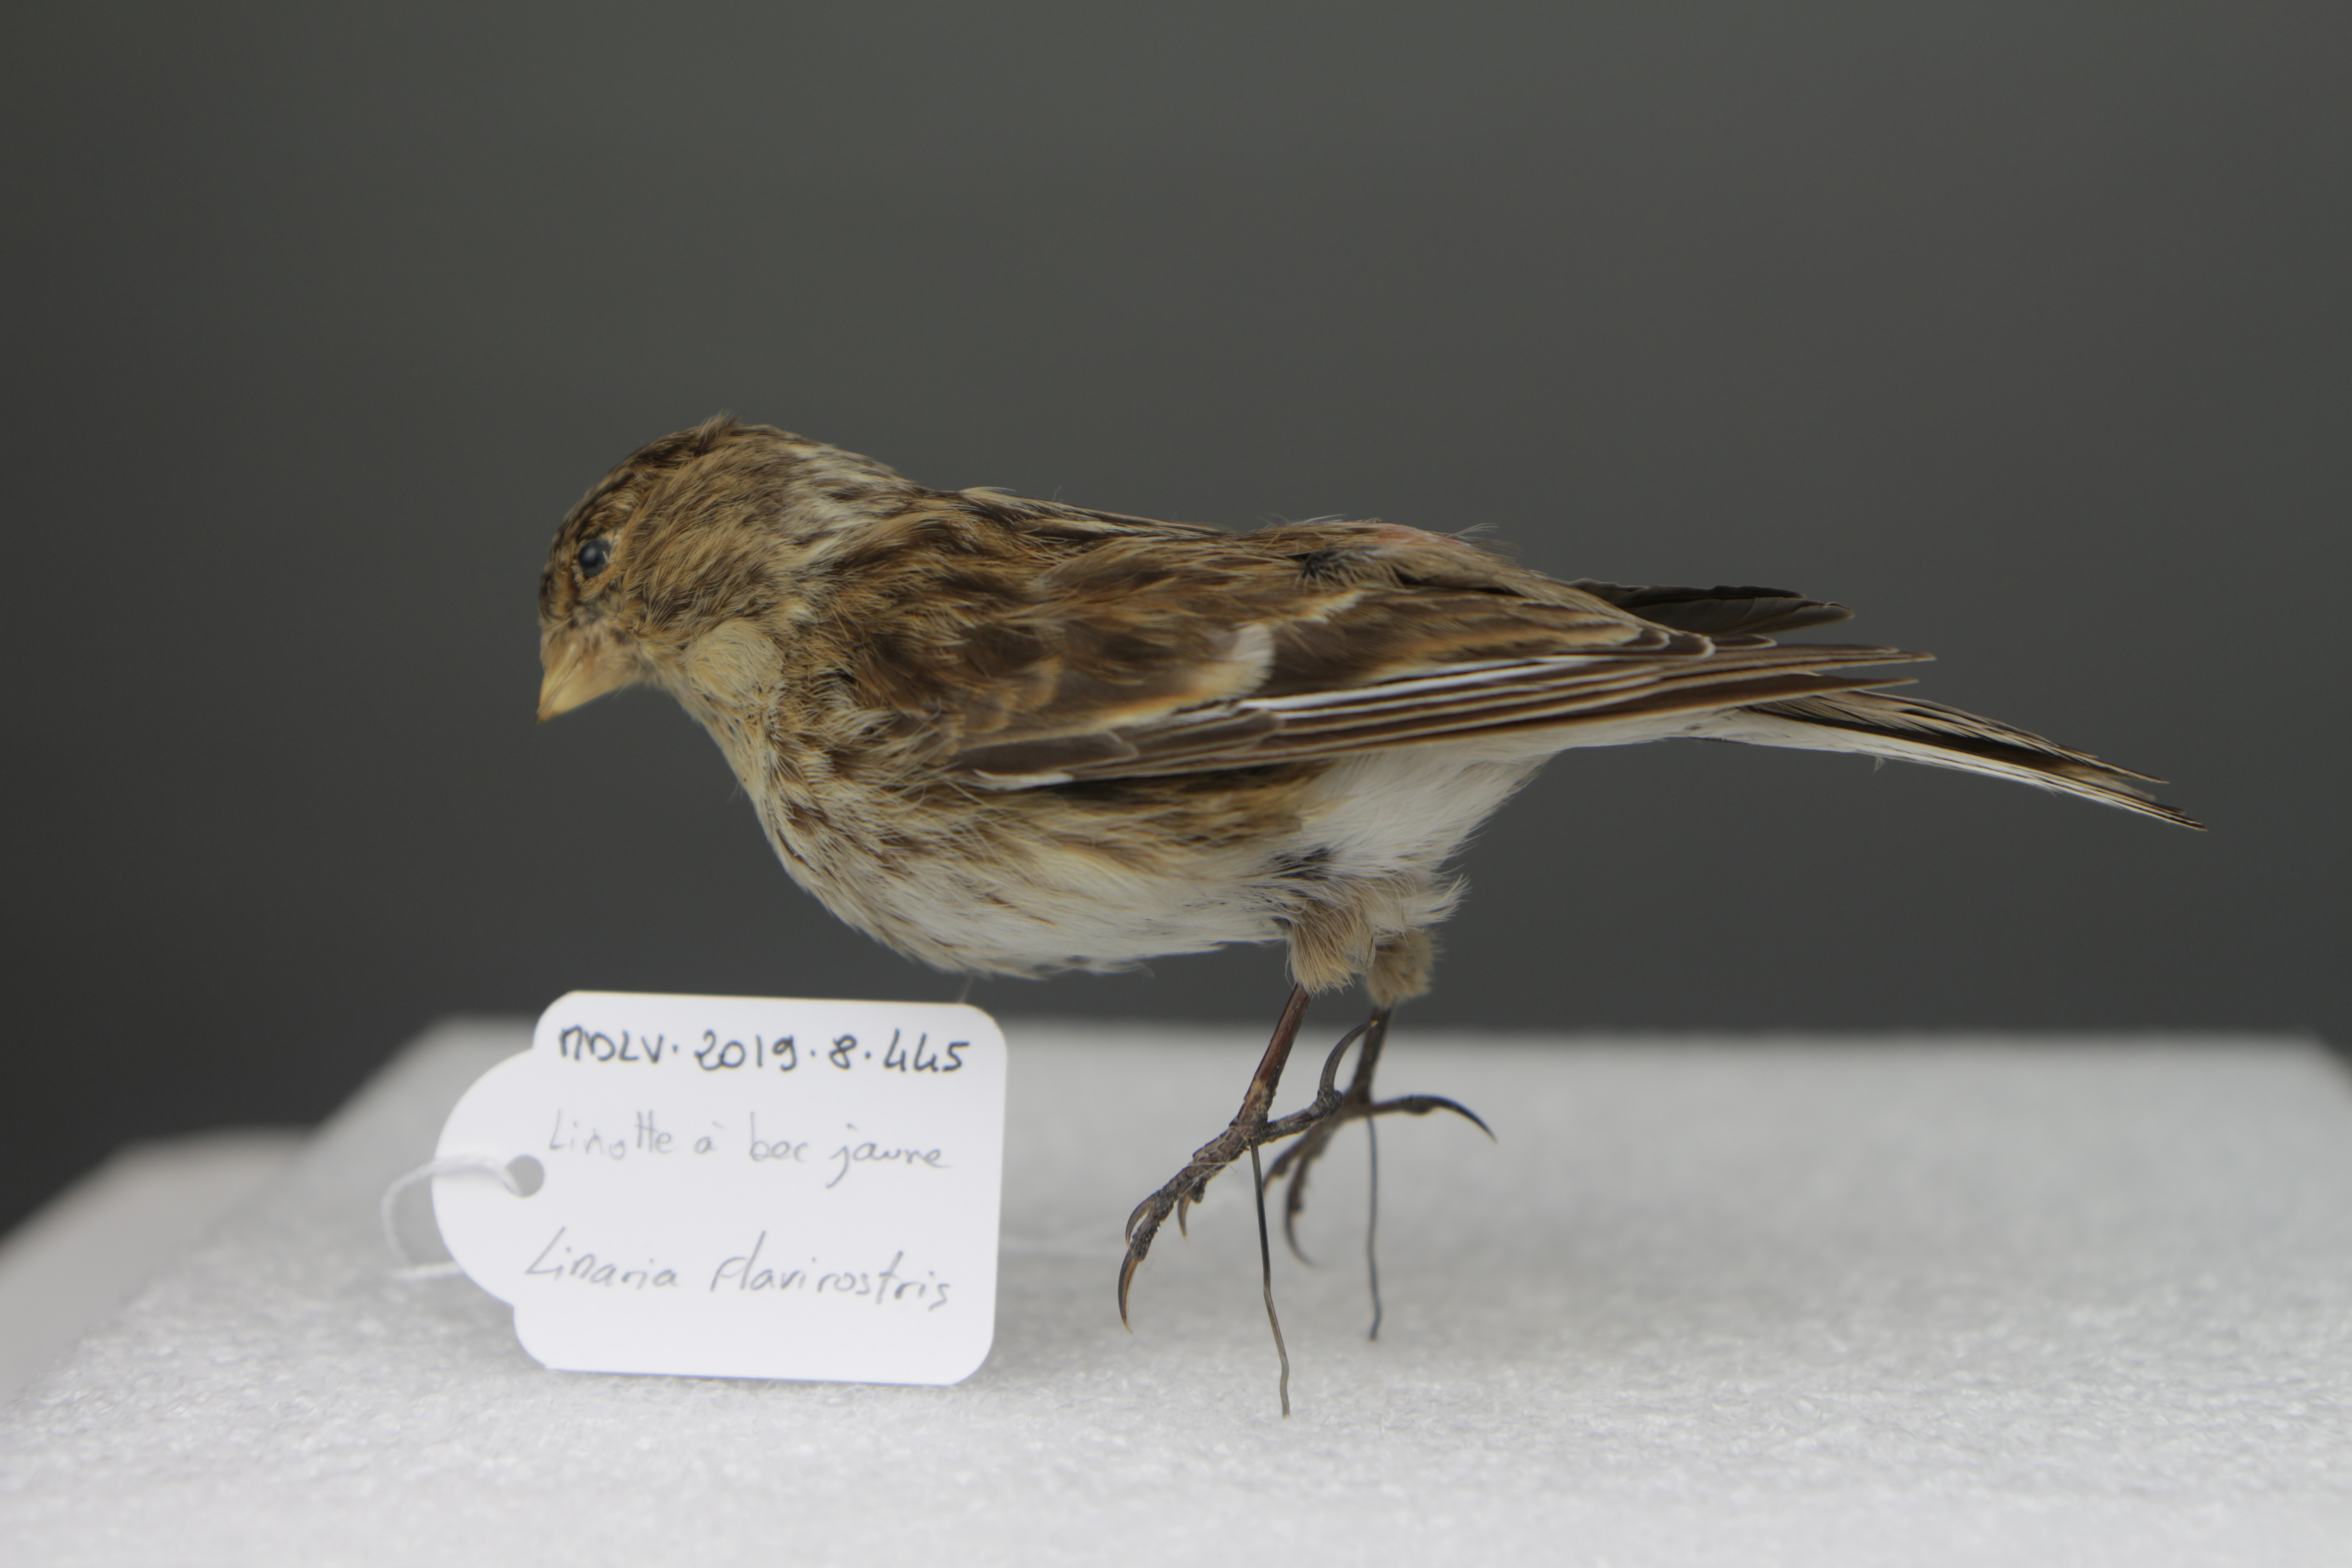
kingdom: Animalia
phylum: Chordata
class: Aves
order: Passeriformes
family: Fringillidae
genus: Linaria
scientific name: Linaria flavirostris
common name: Twite
